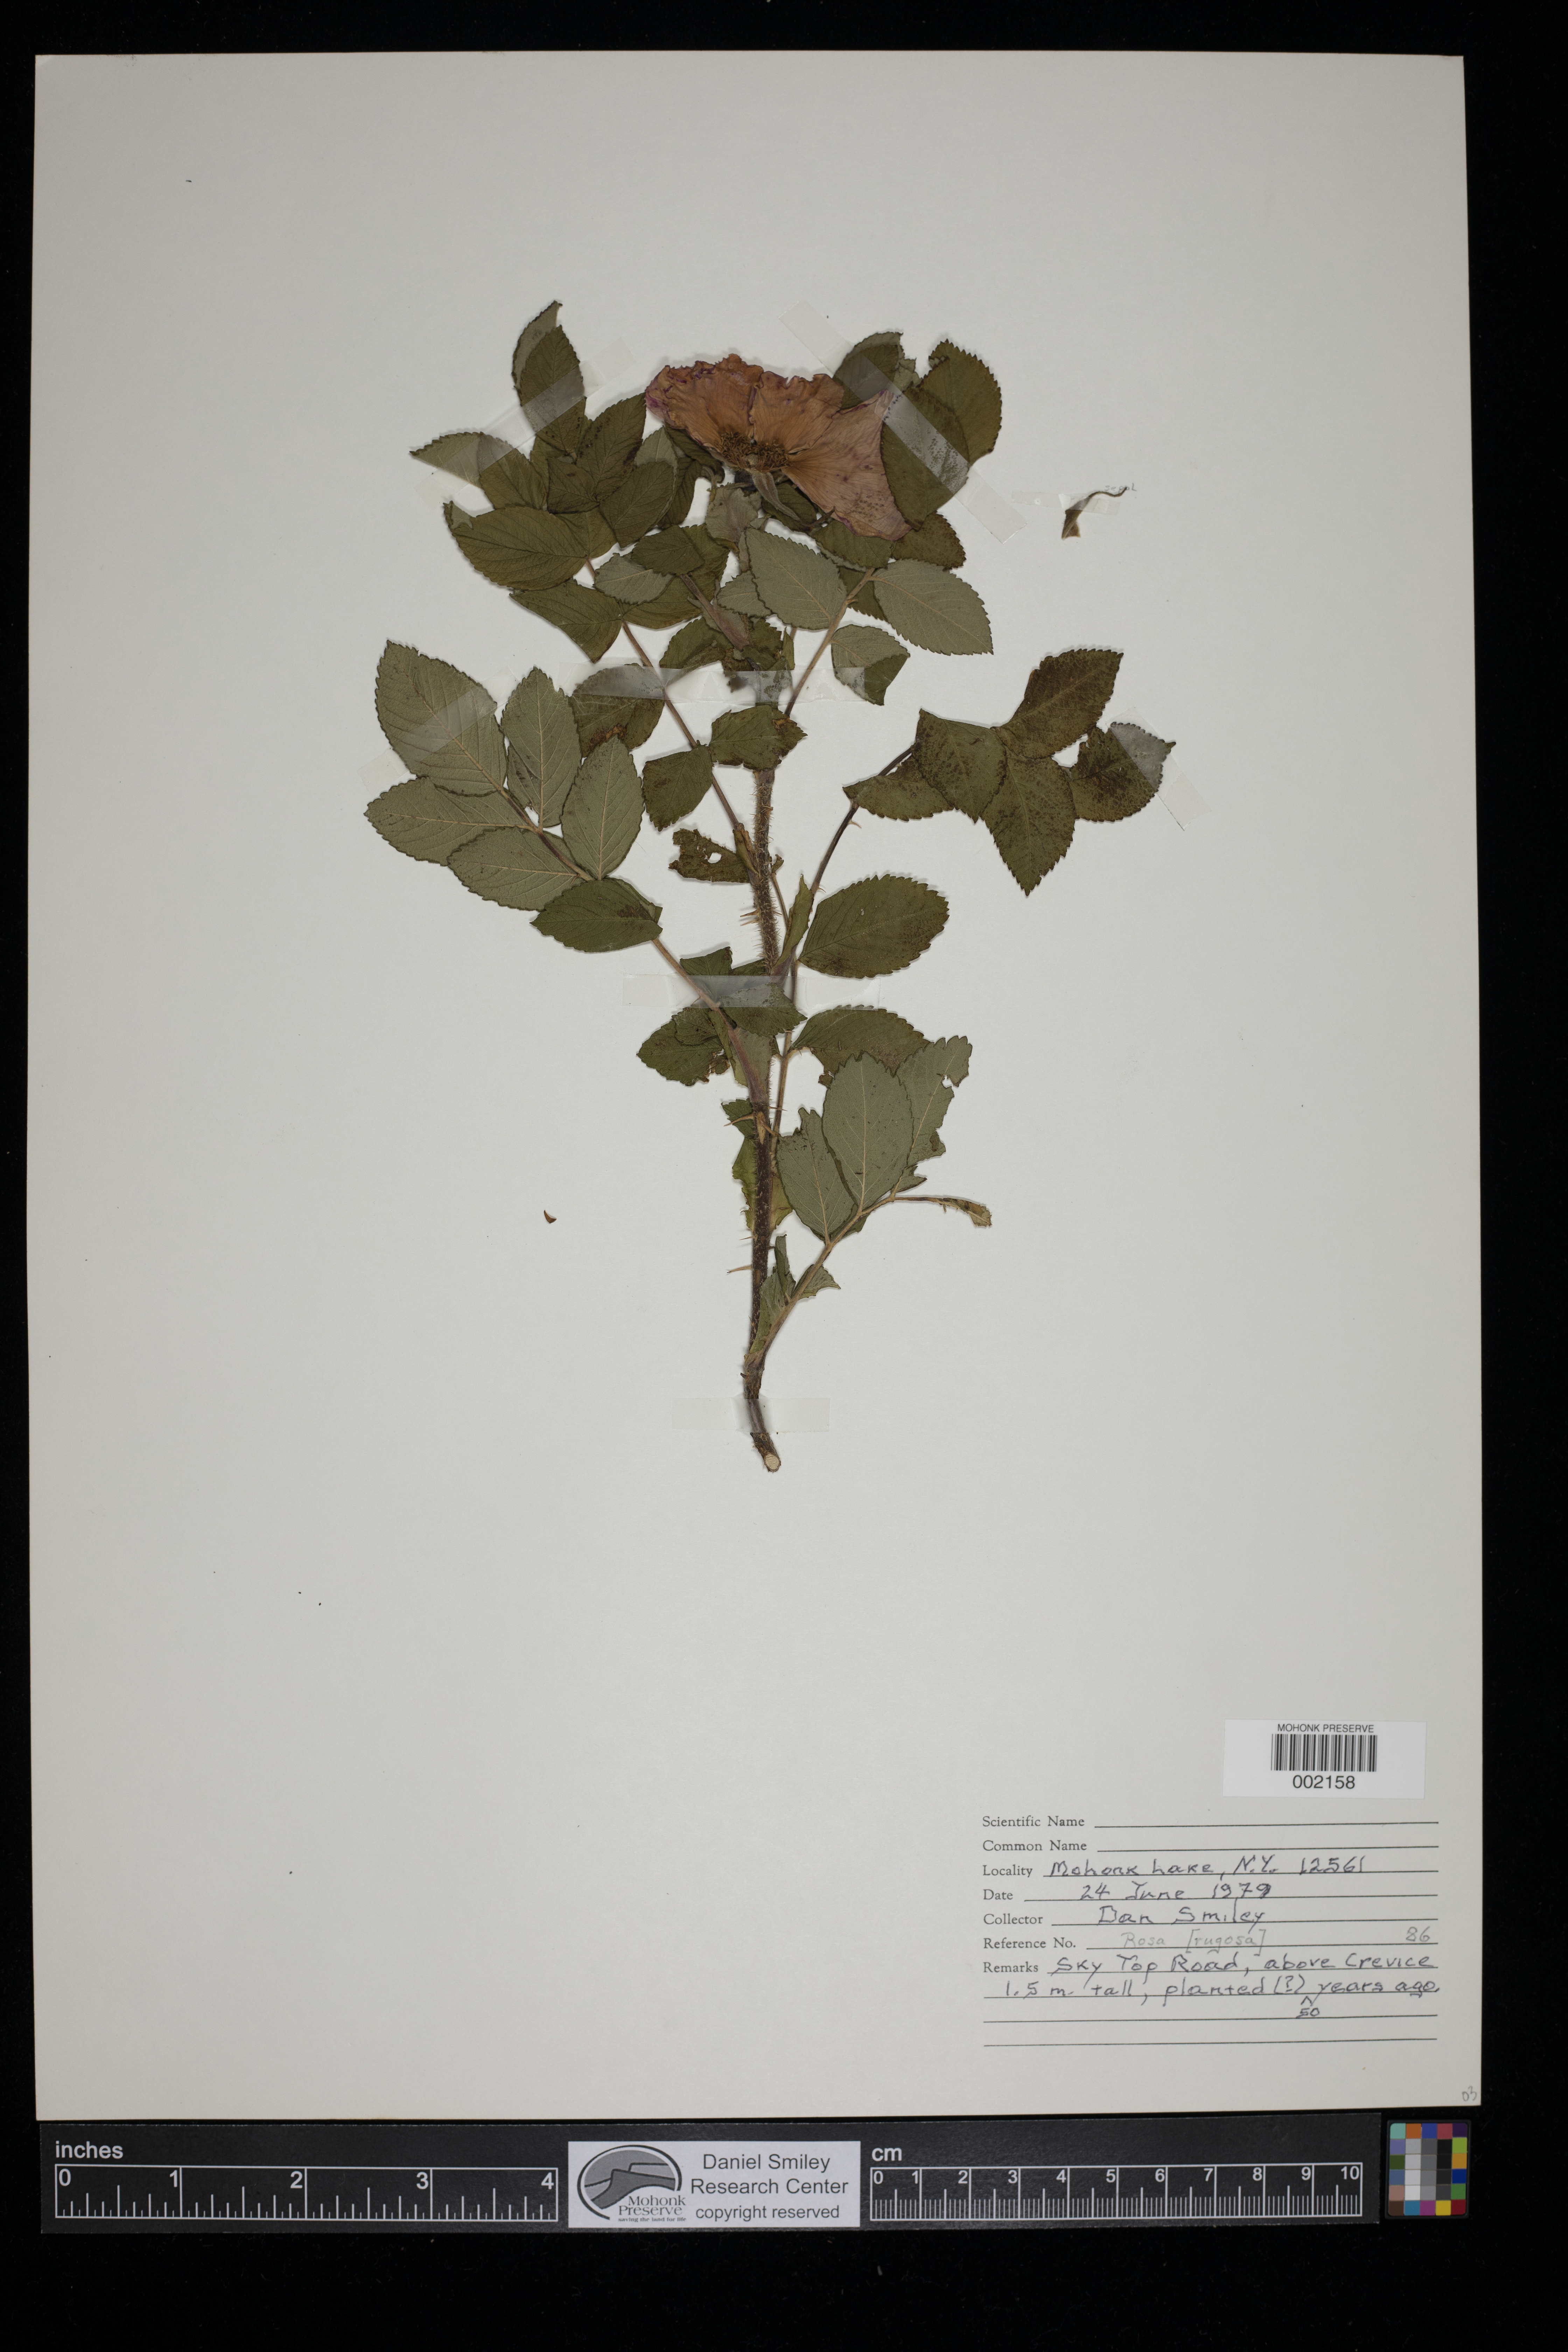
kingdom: Plantae
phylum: Tracheophyta
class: Magnoliopsida
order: Rosales
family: Rosaceae
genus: Rosa
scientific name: Rosa rugosa
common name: Japanese rose
